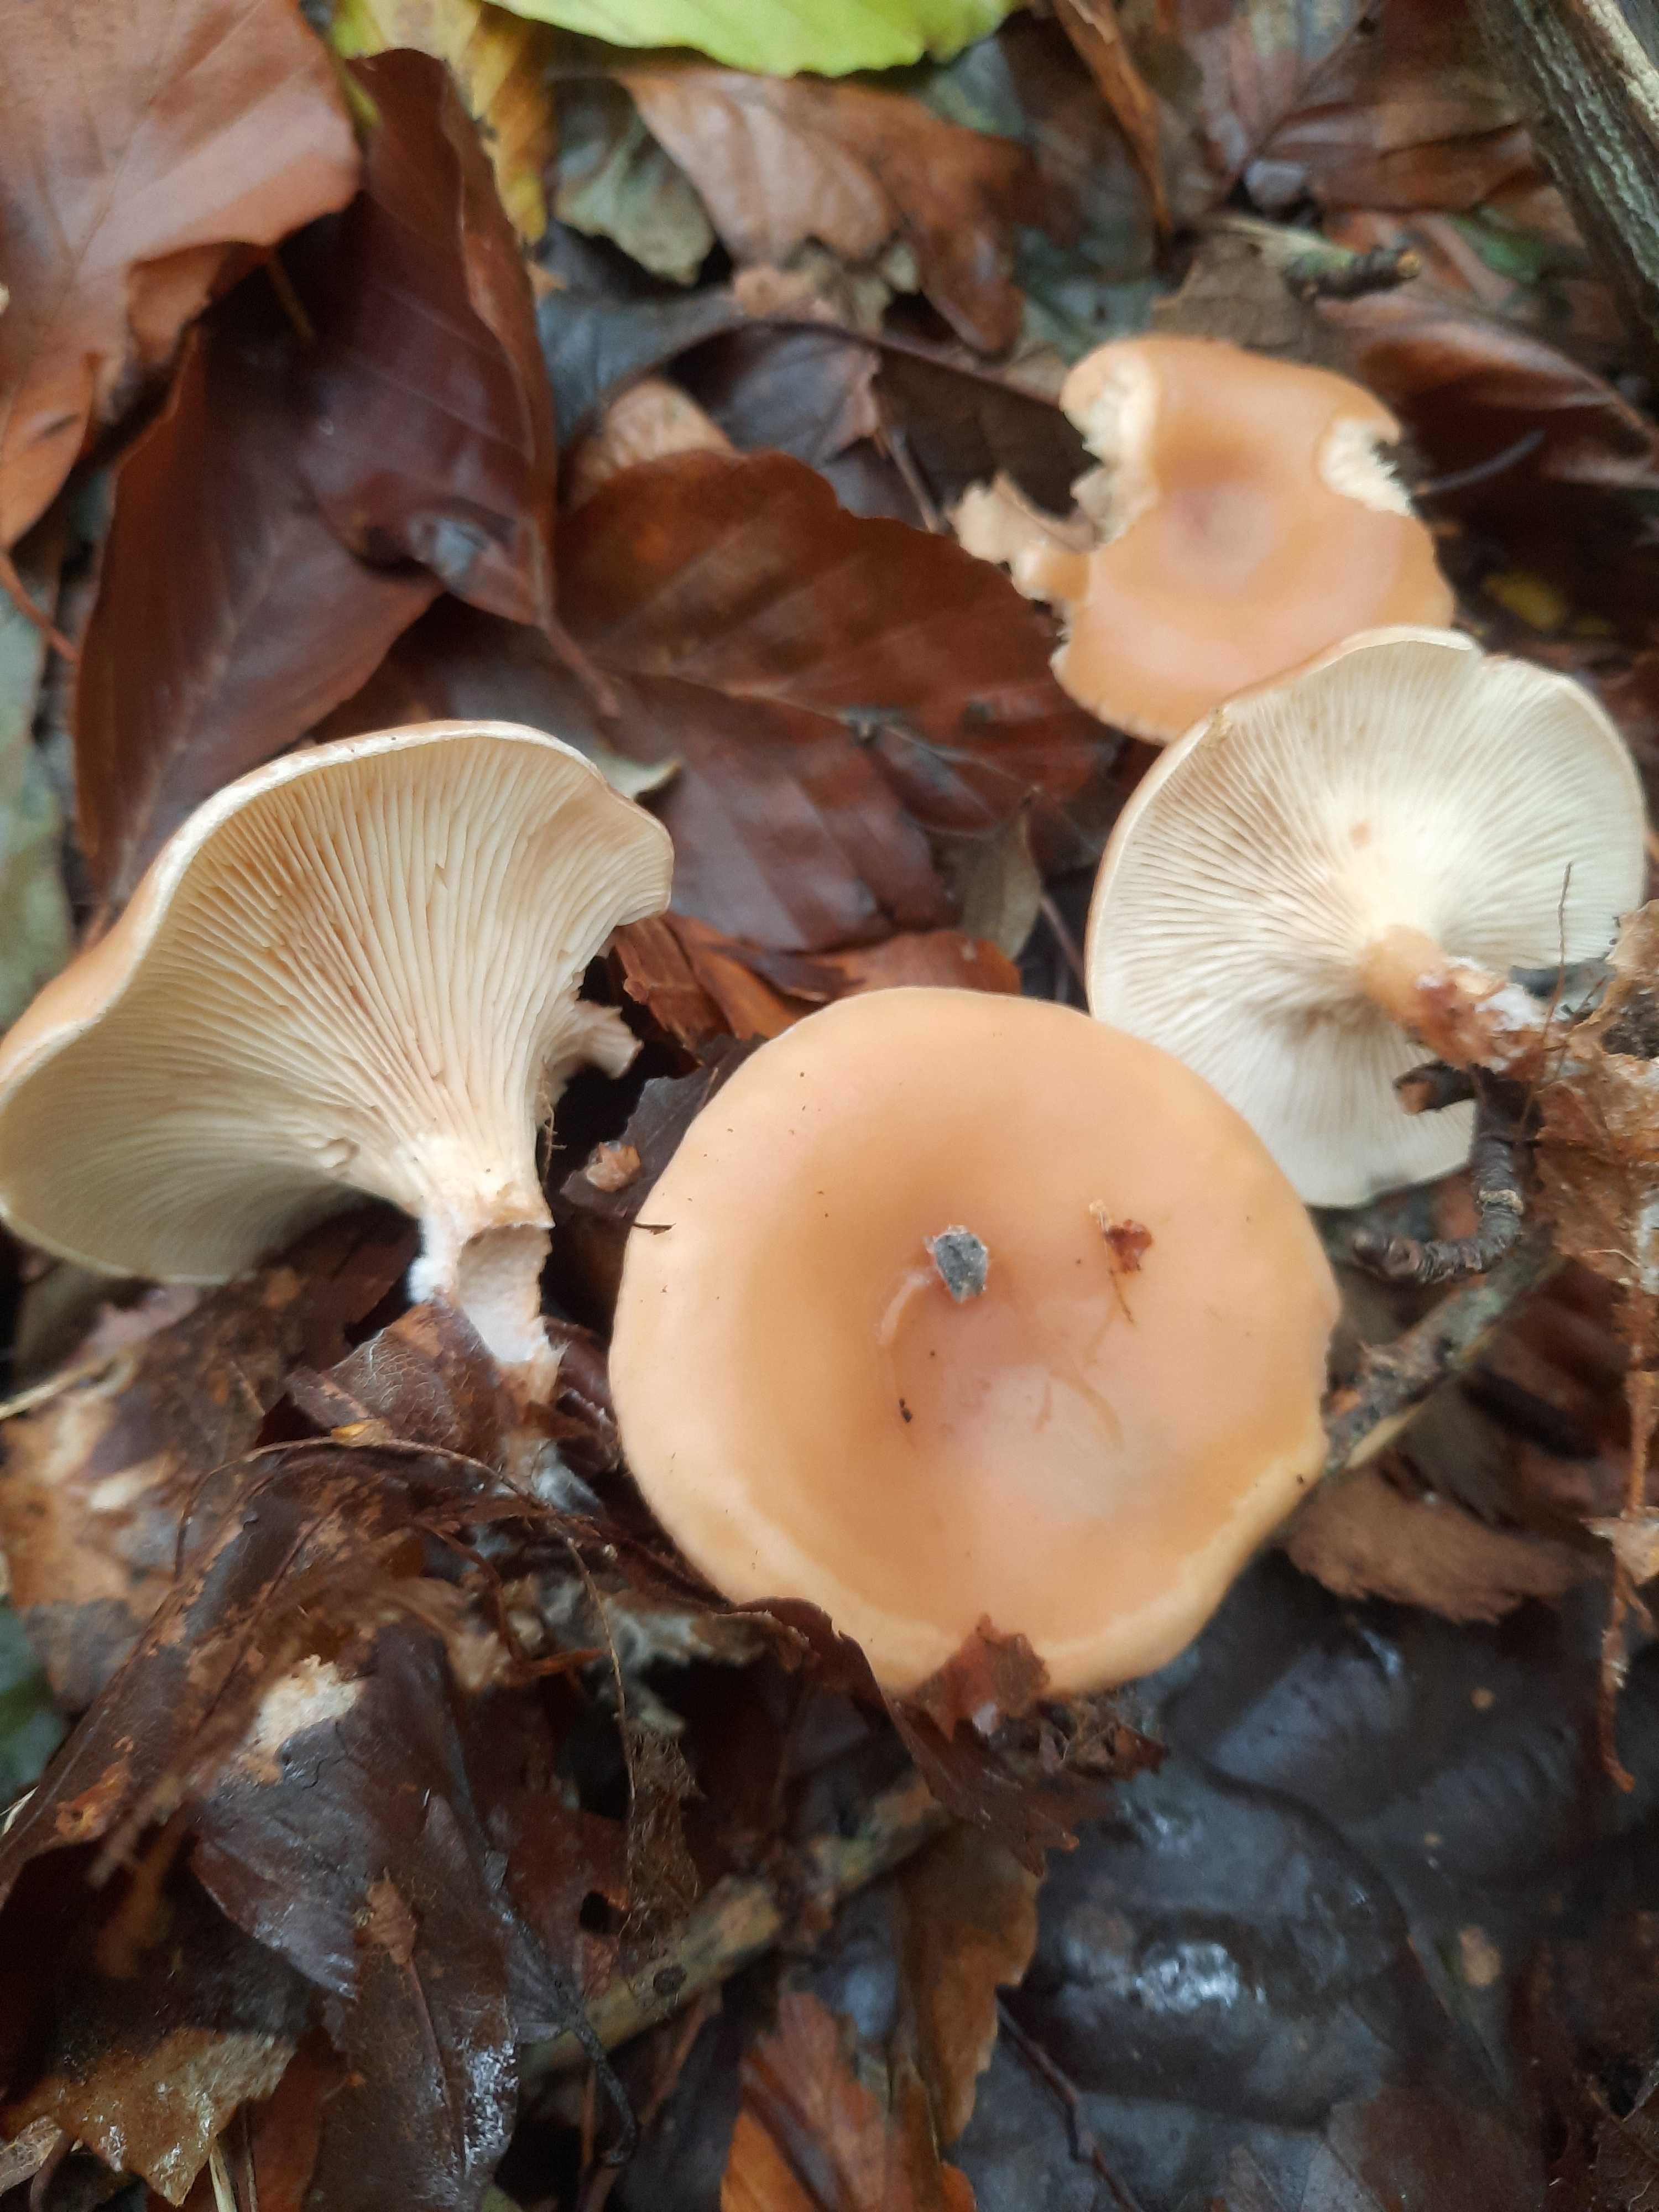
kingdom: Fungi
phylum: Basidiomycota
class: Agaricomycetes
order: Agaricales
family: Tricholomataceae
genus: Paralepista
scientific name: Paralepista flaccida
